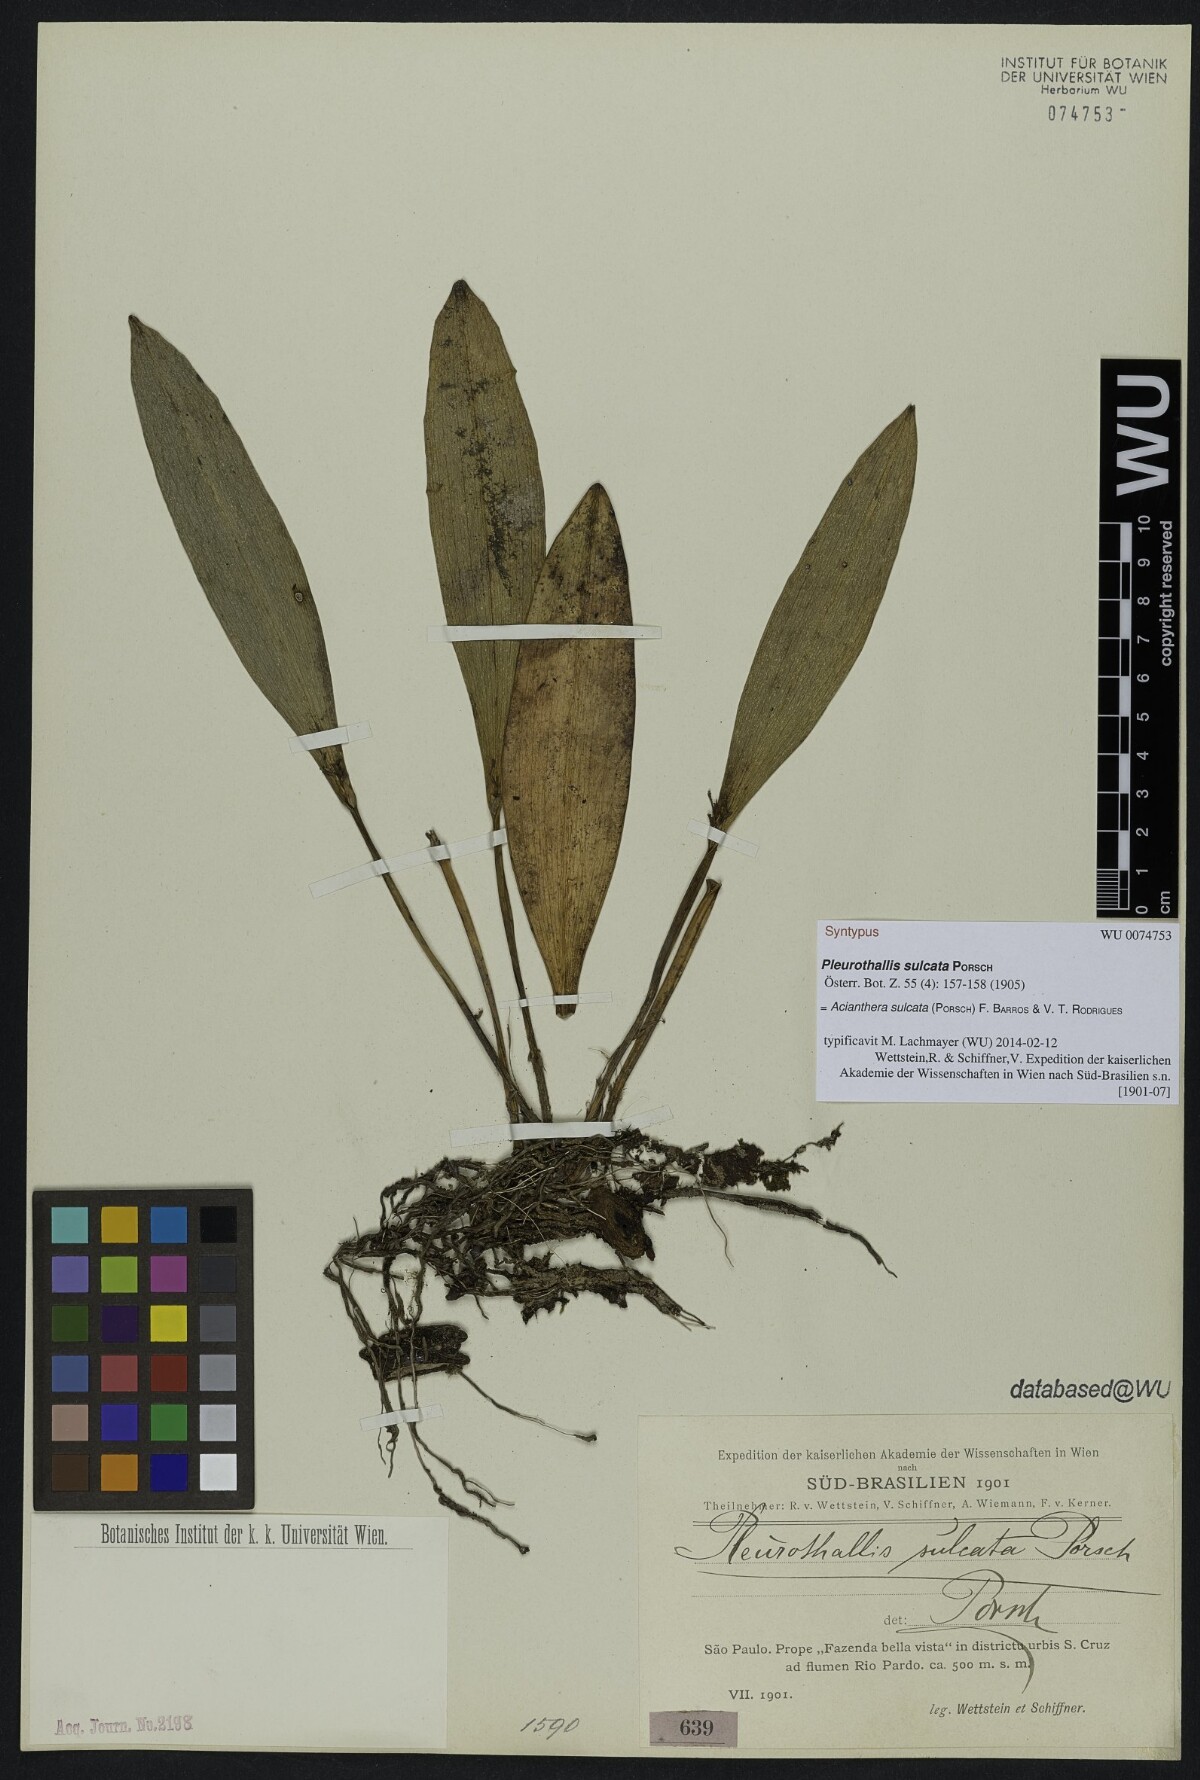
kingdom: Plantae
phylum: Tracheophyta
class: Liliopsida
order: Asparagales
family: Orchidaceae
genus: Acianthera
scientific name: Acianthera sulcata
